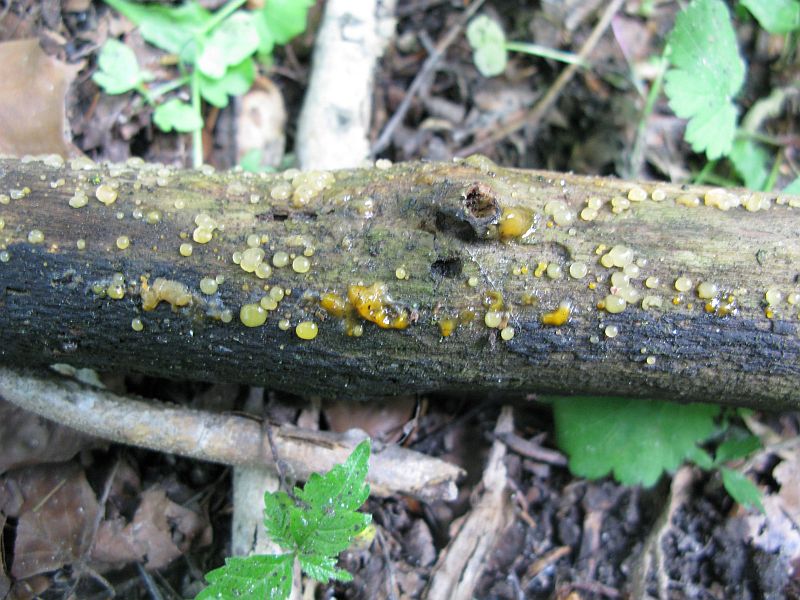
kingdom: Fungi
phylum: Basidiomycota
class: Dacrymycetes
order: Dacrymycetales
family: Dacrymycetaceae
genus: Dacrymyces
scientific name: Dacrymyces lacrymalis
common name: rynket tåresvamp
